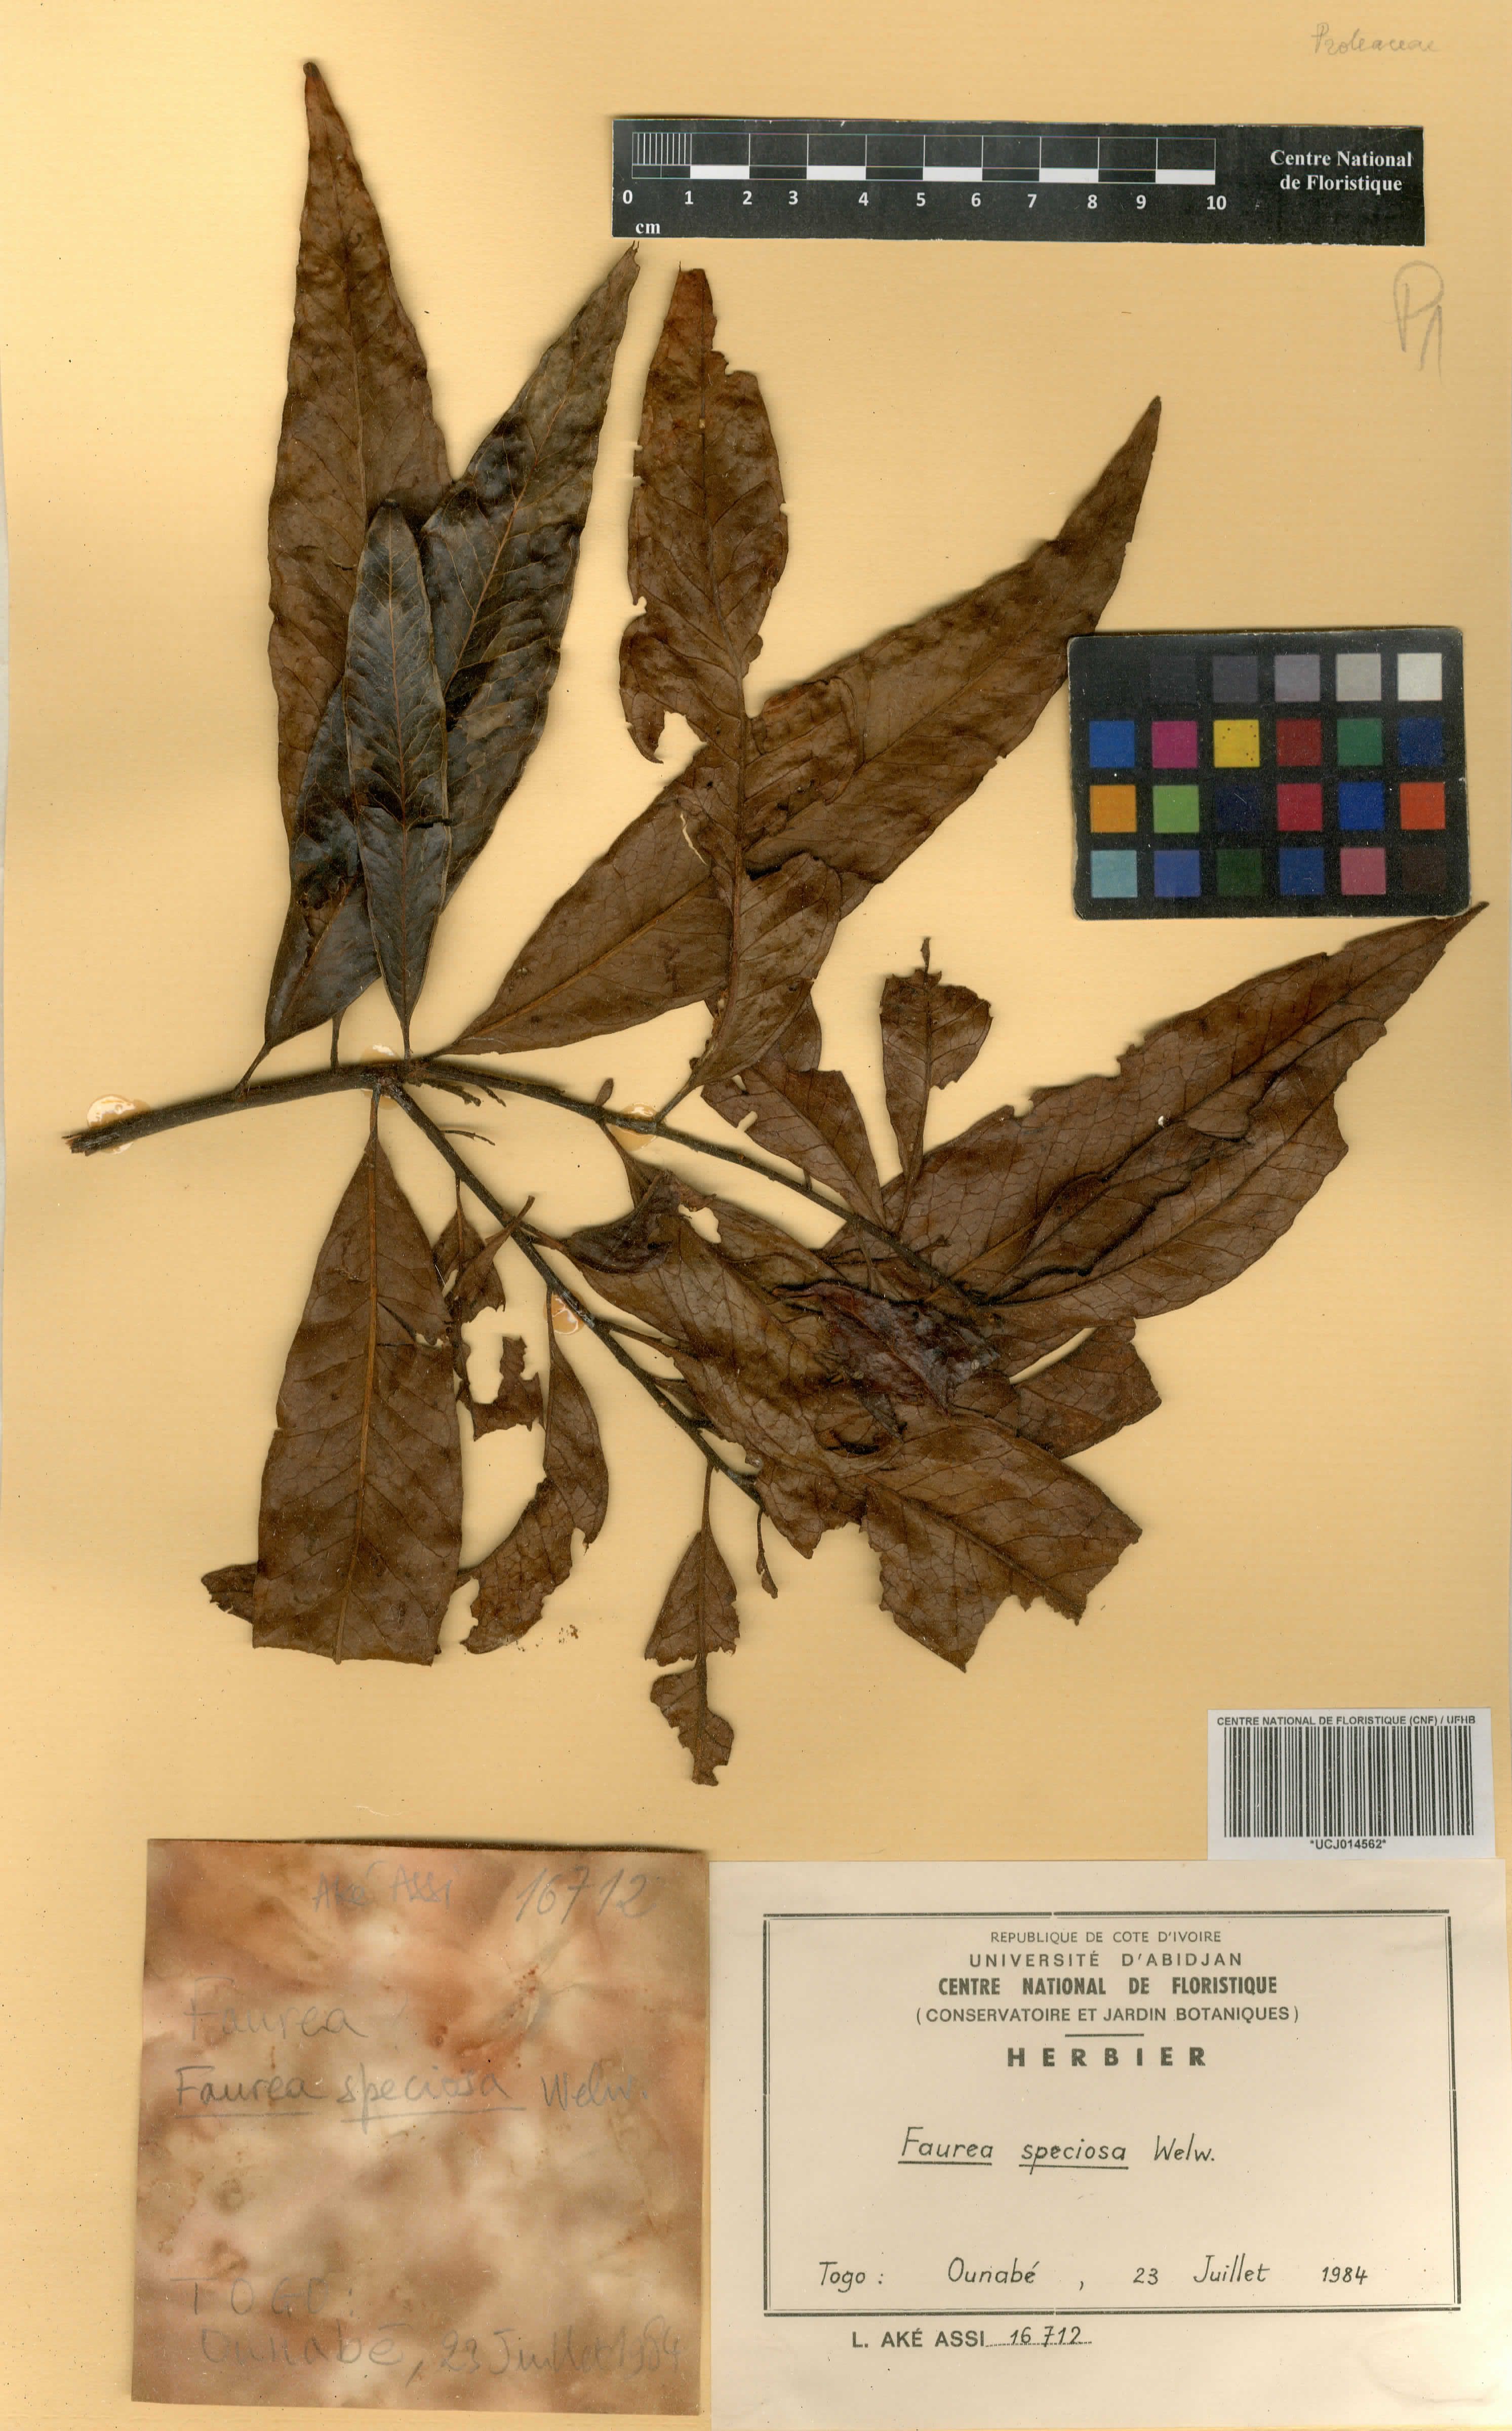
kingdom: Plantae
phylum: Tracheophyta
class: Magnoliopsida
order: Proteales
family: Proteaceae
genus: Faurea
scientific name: Faurea rochetiana
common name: Broad-leaved beech
